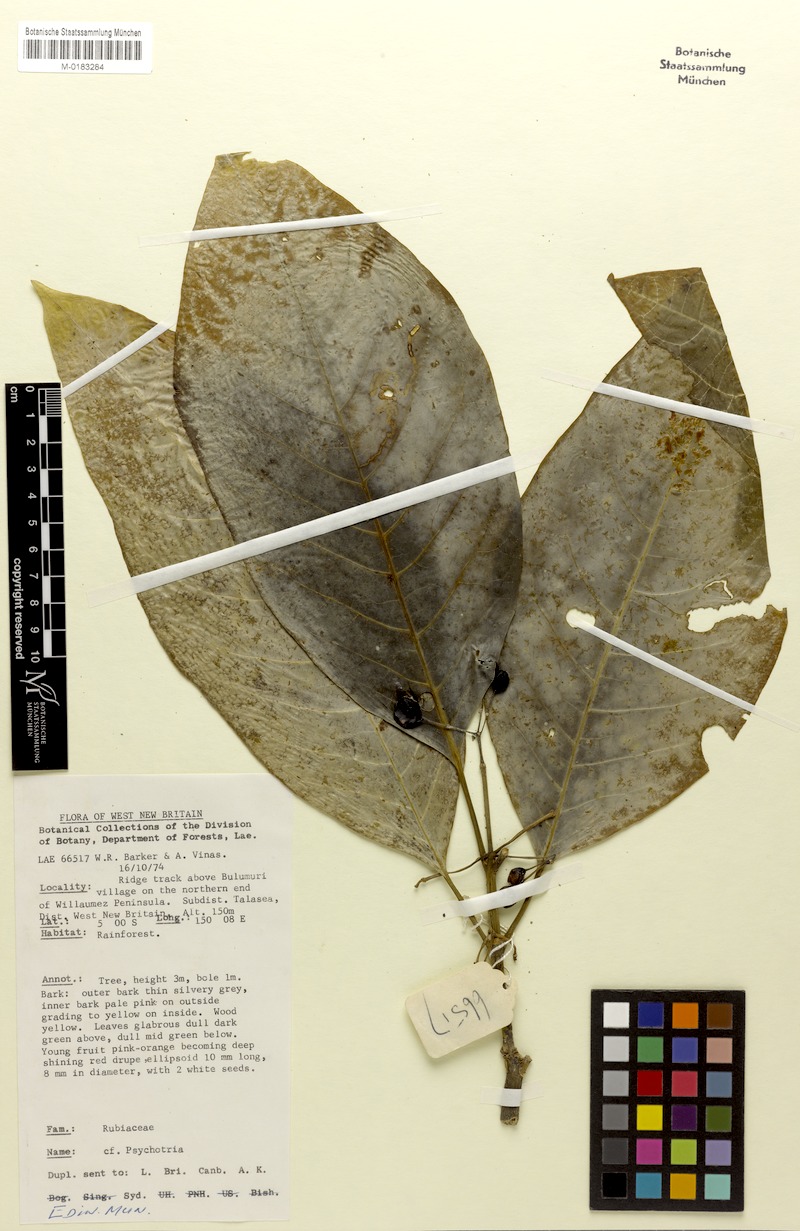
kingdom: Plantae
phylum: Tracheophyta
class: Magnoliopsida
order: Gentianales
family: Rubiaceae
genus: Eumachia
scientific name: Eumachia damasiana
